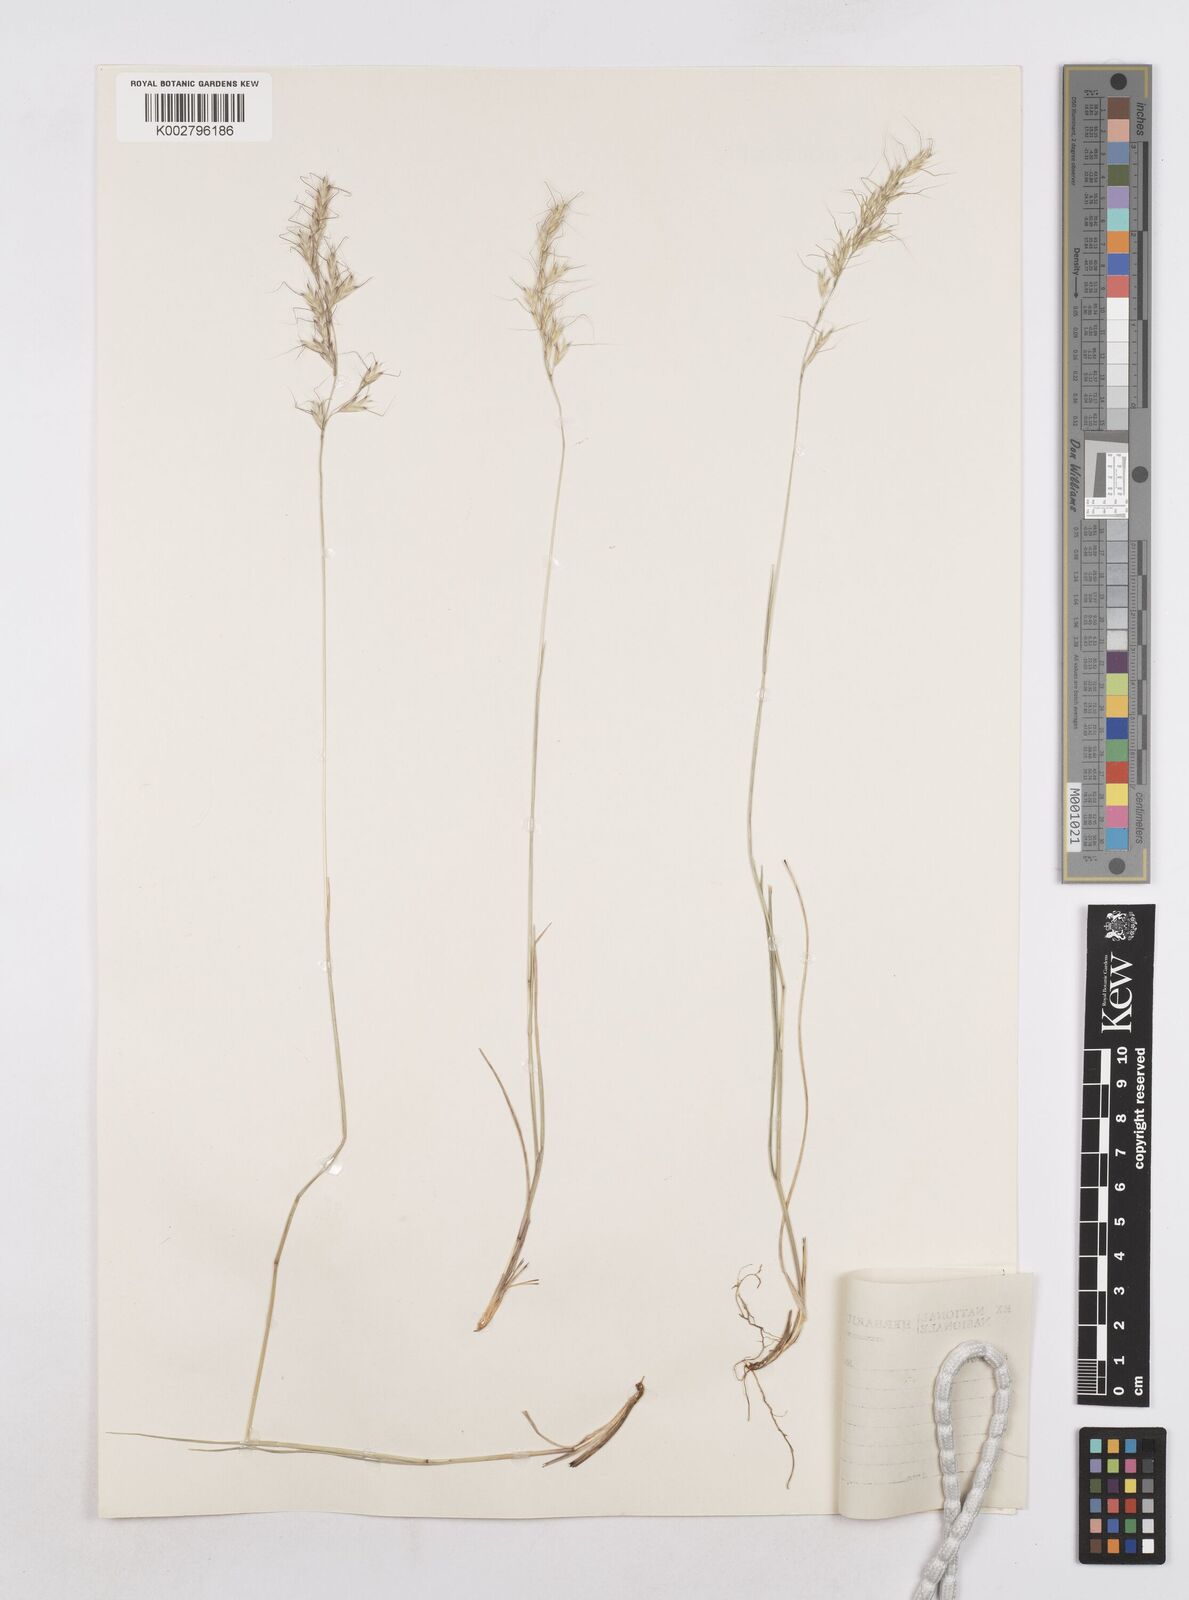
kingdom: Plantae
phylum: Tracheophyta
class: Liliopsida
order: Poales
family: Poaceae
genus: Helictotrichon
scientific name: Helictotrichon
